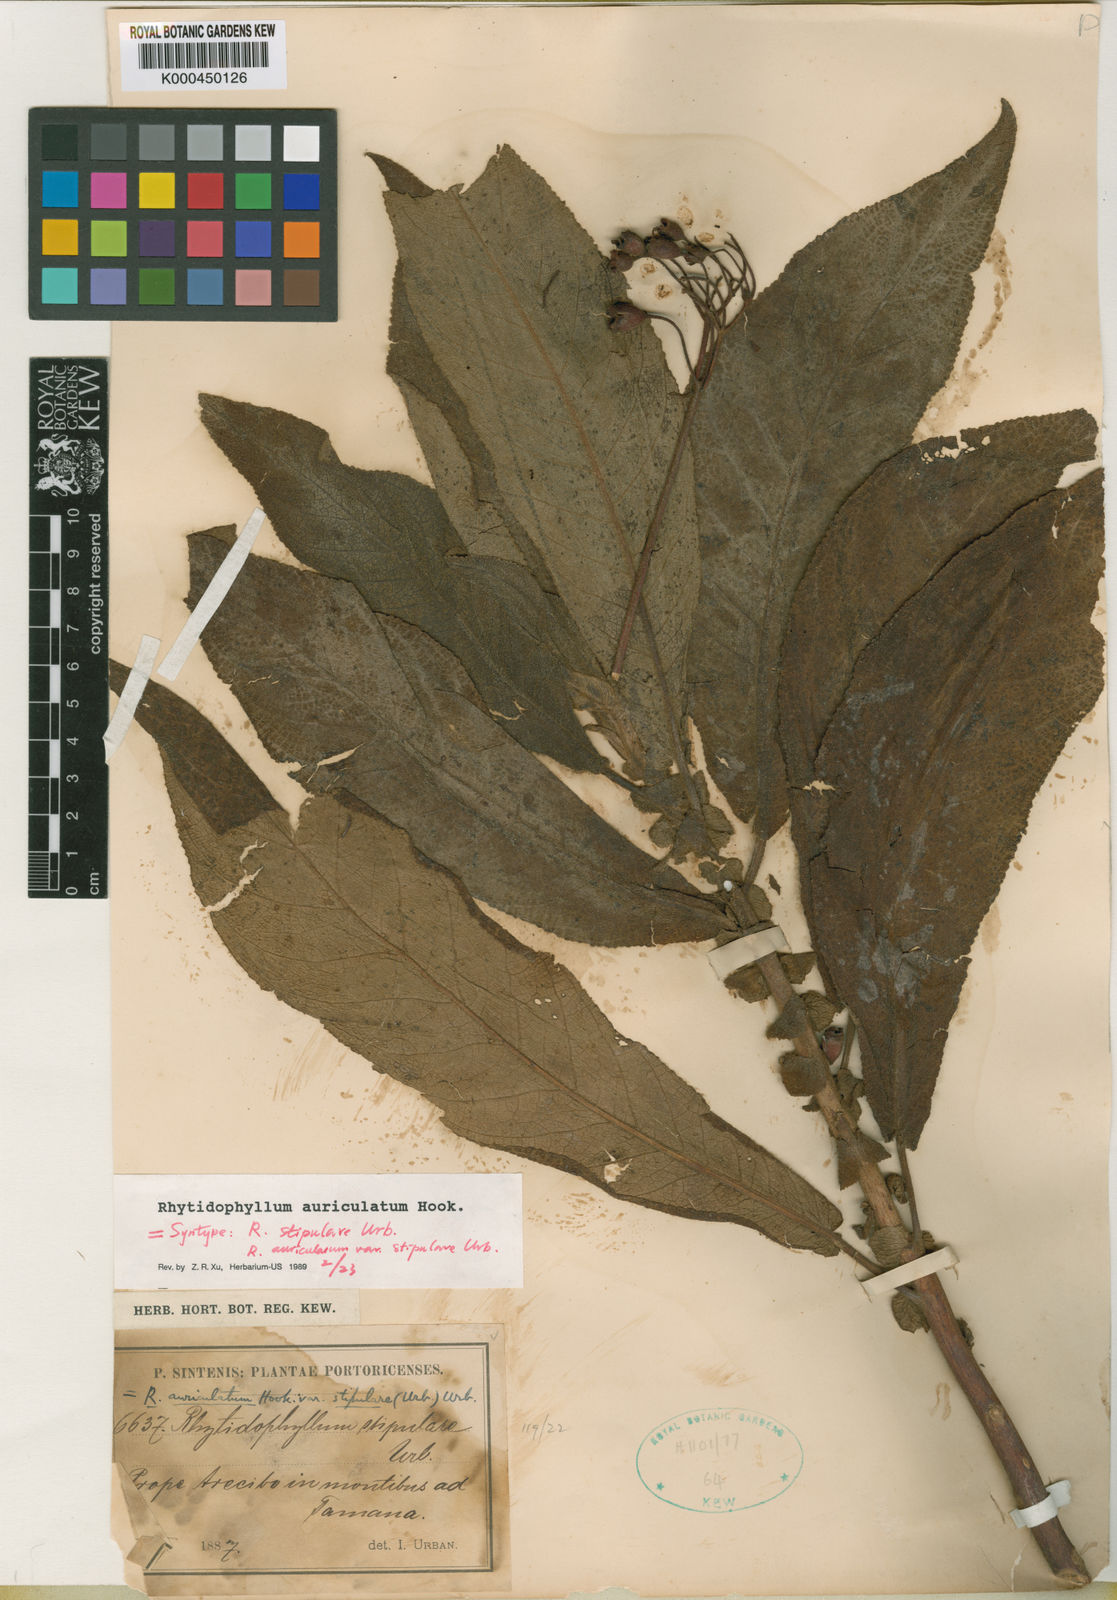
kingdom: Plantae
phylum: Tracheophyta
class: Magnoliopsida
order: Lamiales
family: Gesneriaceae
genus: Rhytidophyllum
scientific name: Rhytidophyllum auriculatum
